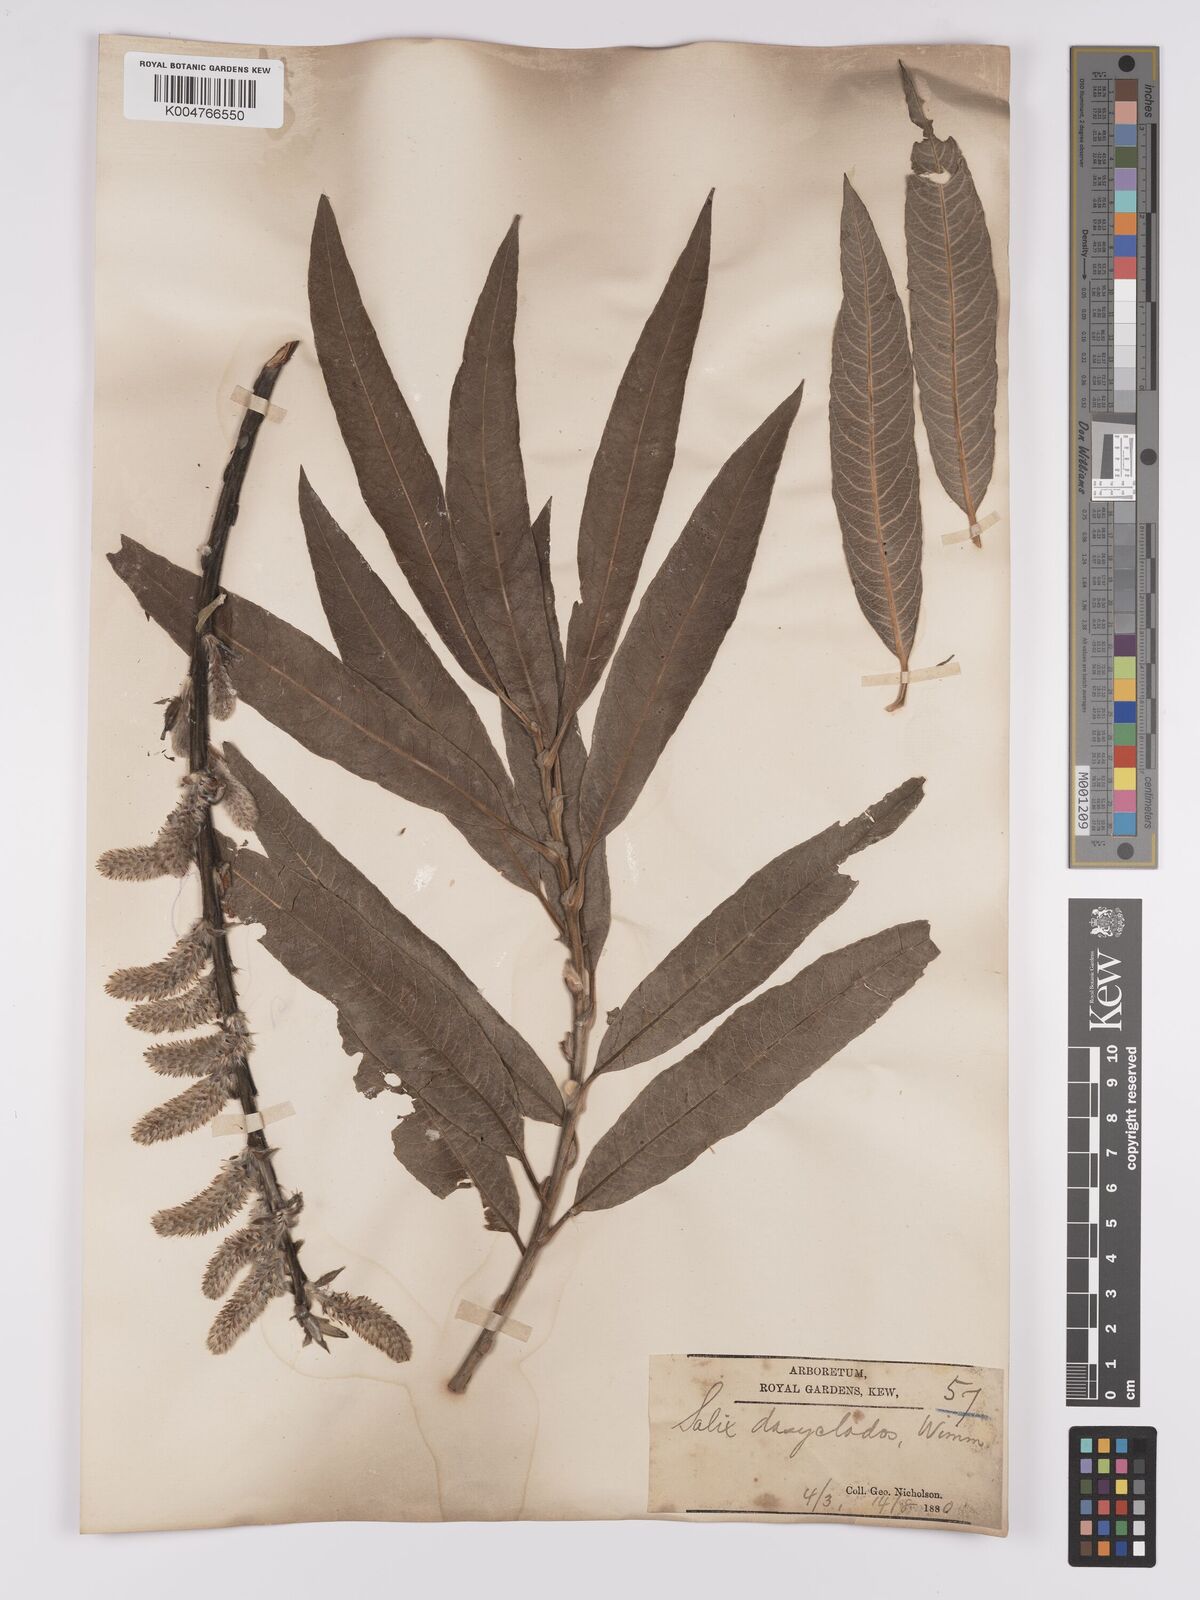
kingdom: Plantae
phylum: Tracheophyta
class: Magnoliopsida
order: Malpighiales
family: Salicaceae
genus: Salix
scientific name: Salix caprea
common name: Goat willow
